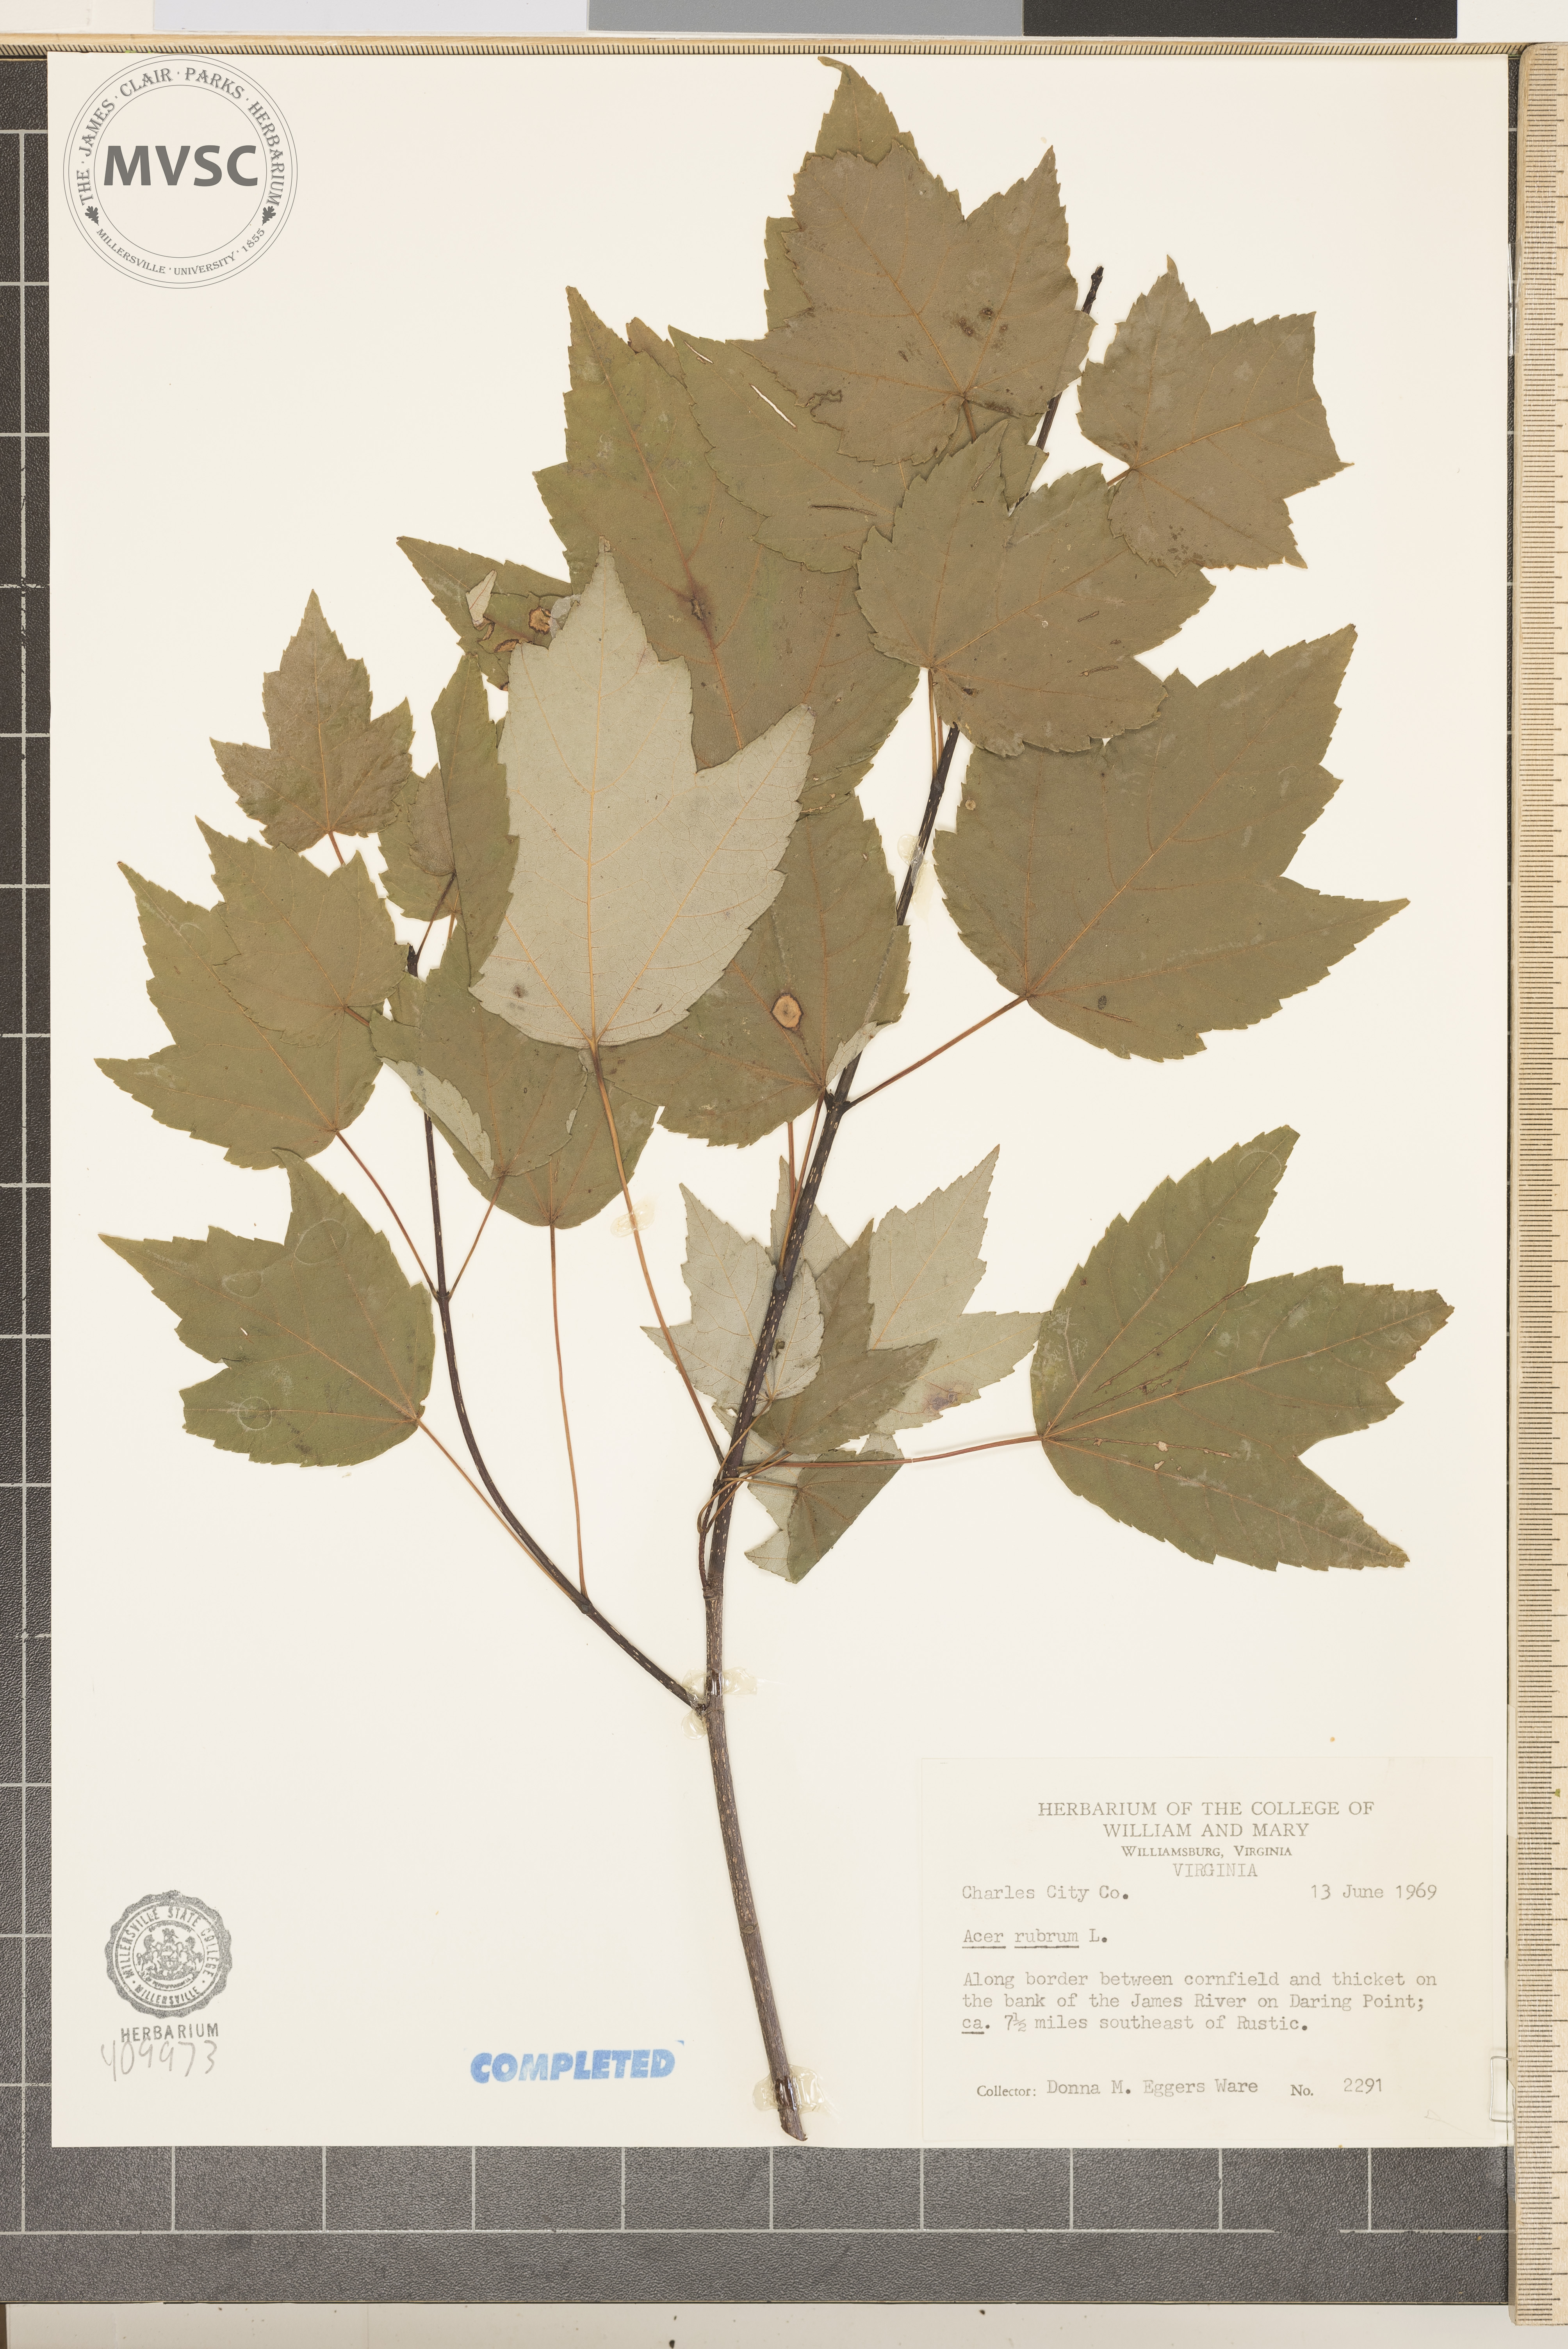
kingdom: Plantae
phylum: Tracheophyta
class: Magnoliopsida
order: Sapindales
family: Sapindaceae
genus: Acer
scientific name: Acer rubrum
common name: Red maple
